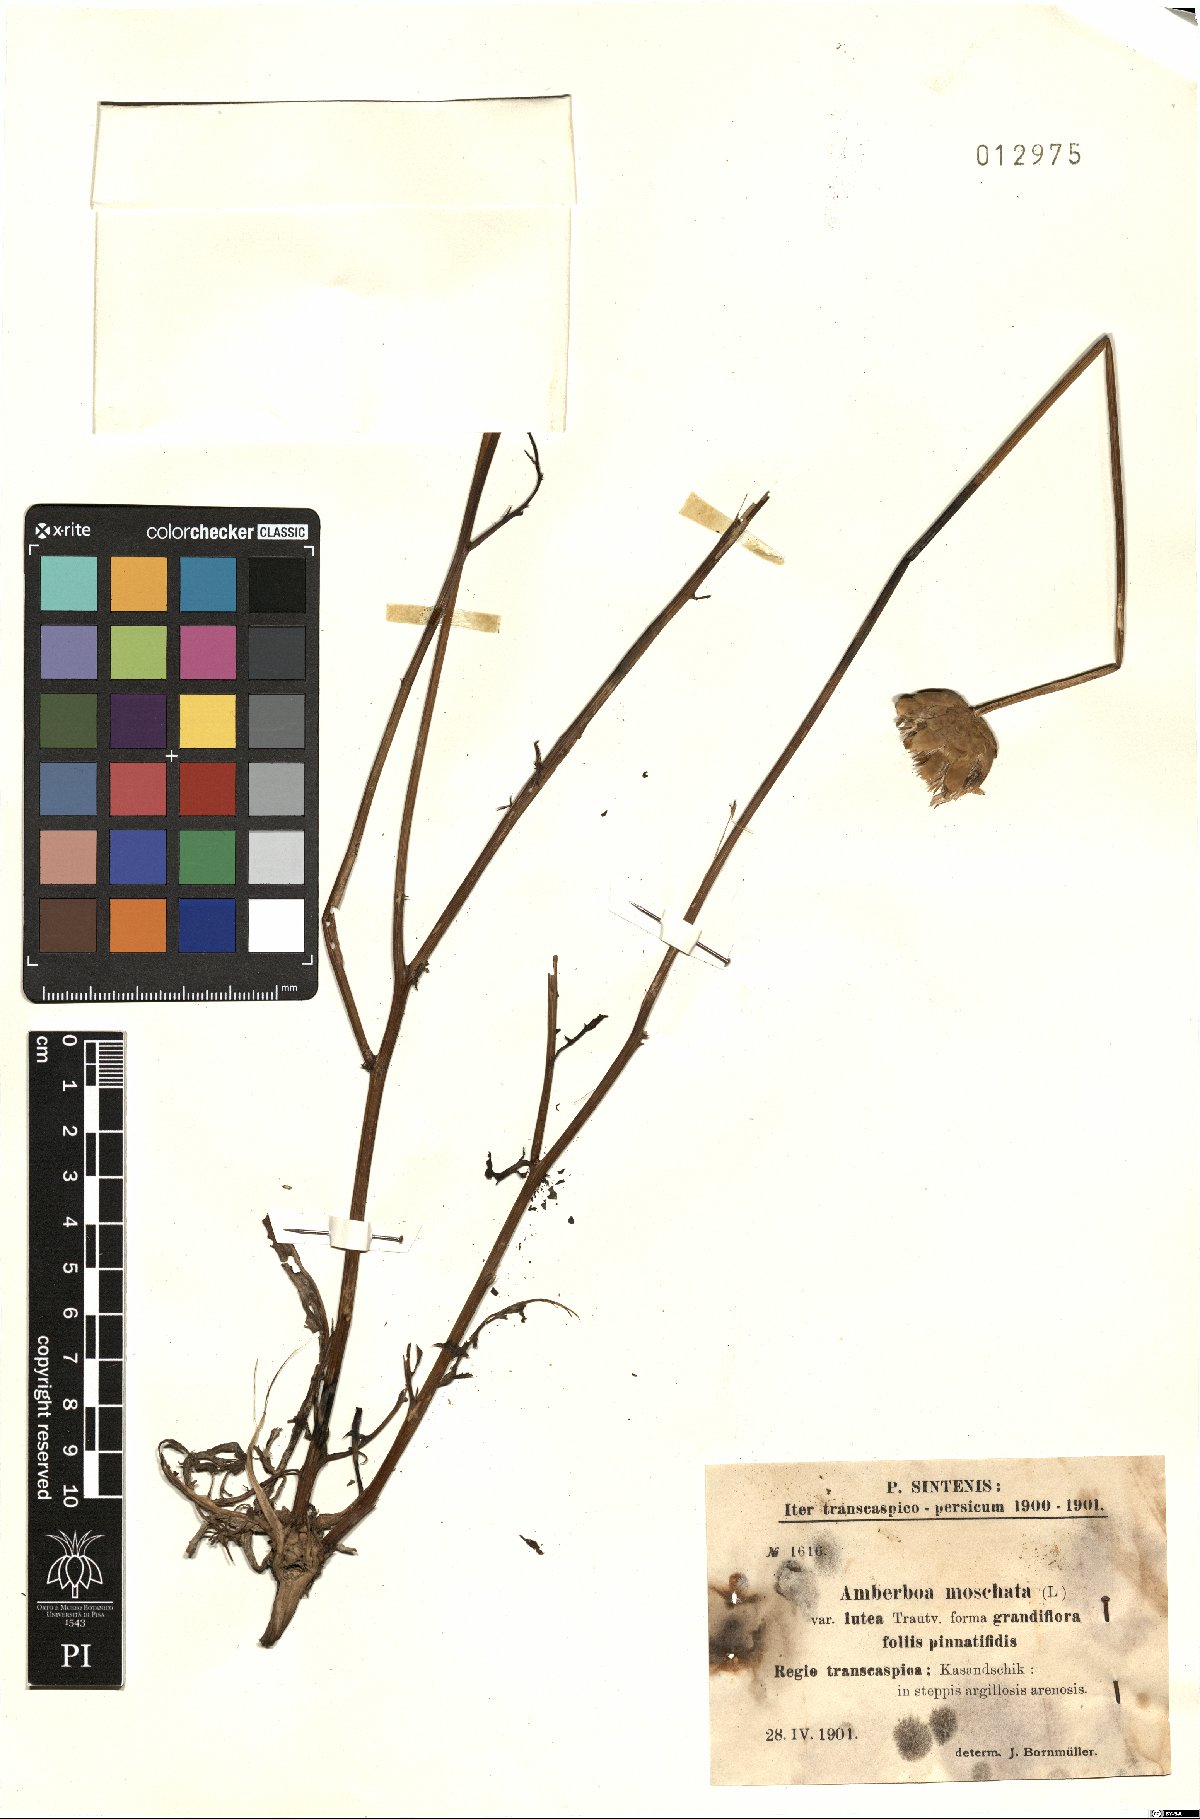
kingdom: Plantae
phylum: Tracheophyta
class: Magnoliopsida
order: Asterales
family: Asteraceae
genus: Amberboa
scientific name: Amberboa moschata
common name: Sweet-sultan
